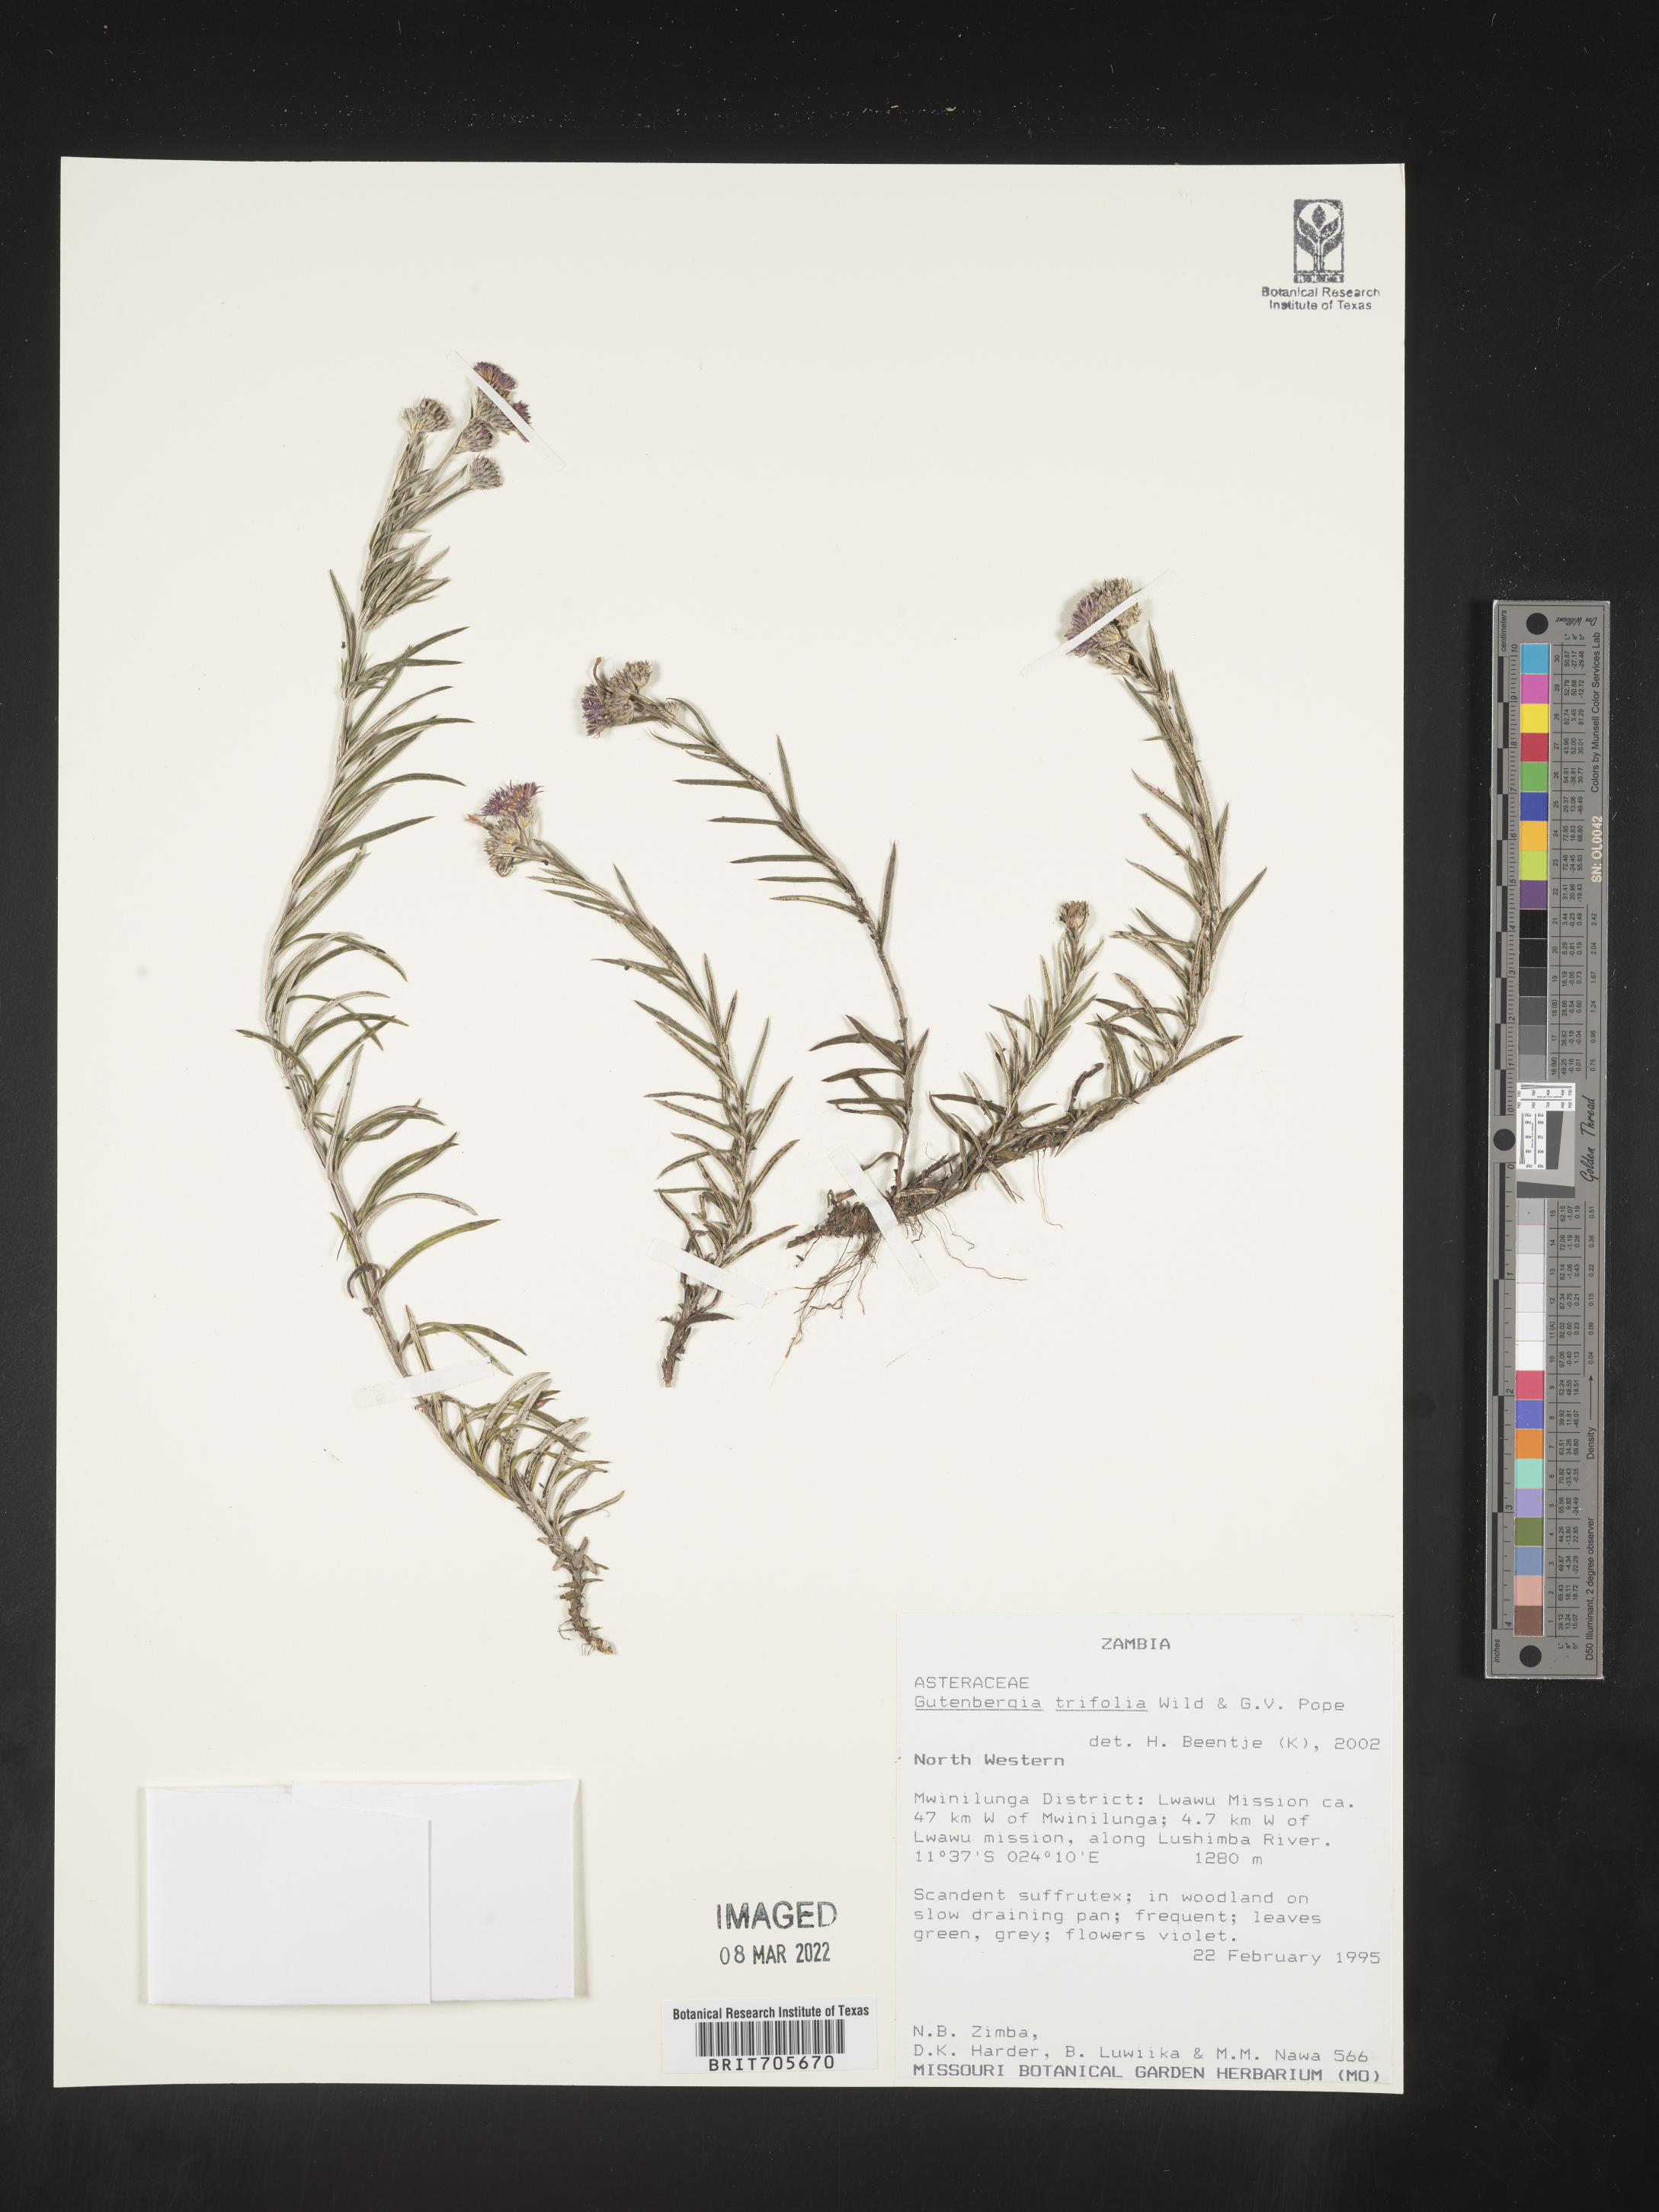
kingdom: Plantae
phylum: Tracheophyta
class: Magnoliopsida
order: Asterales
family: Asteraceae
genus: Gutenbergia
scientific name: Gutenbergia
